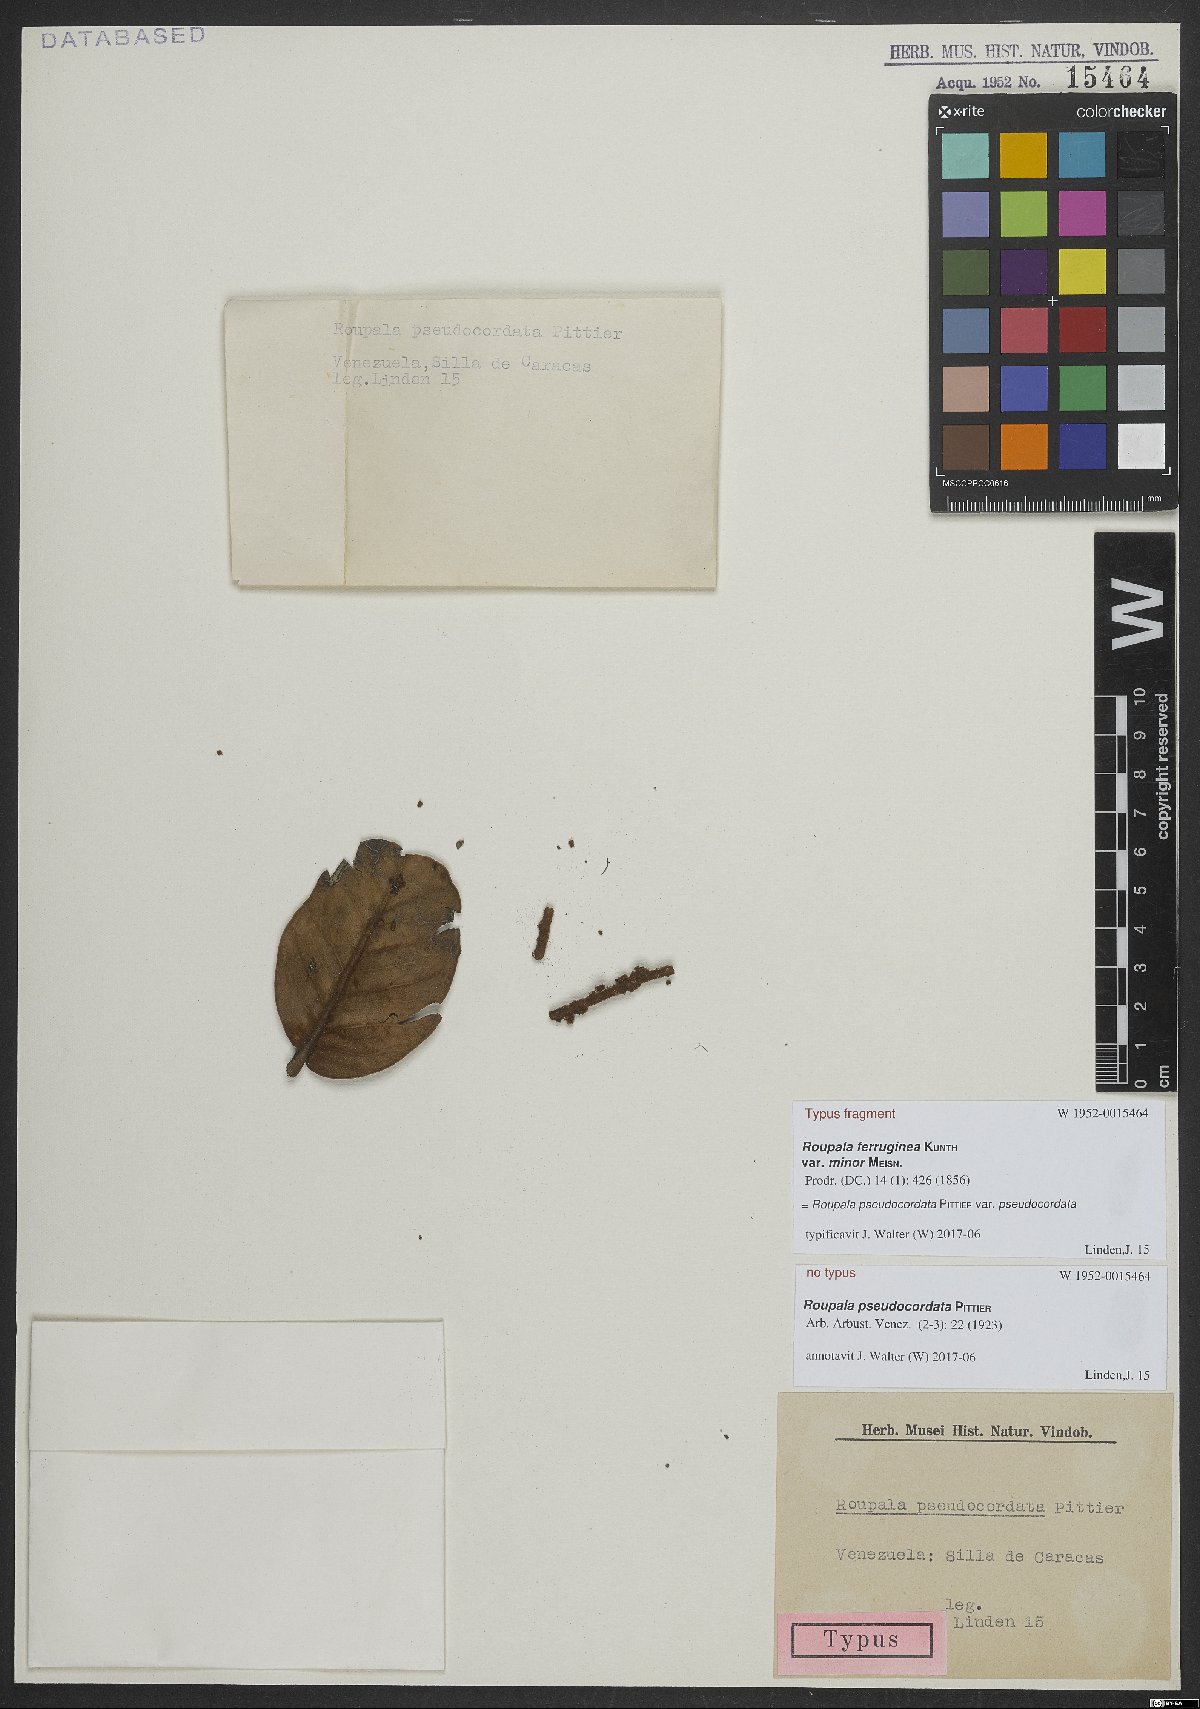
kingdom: Plantae
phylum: Tracheophyta
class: Magnoliopsida
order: Proteales
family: Proteaceae
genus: Roupala
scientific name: Roupala pseudocordata
